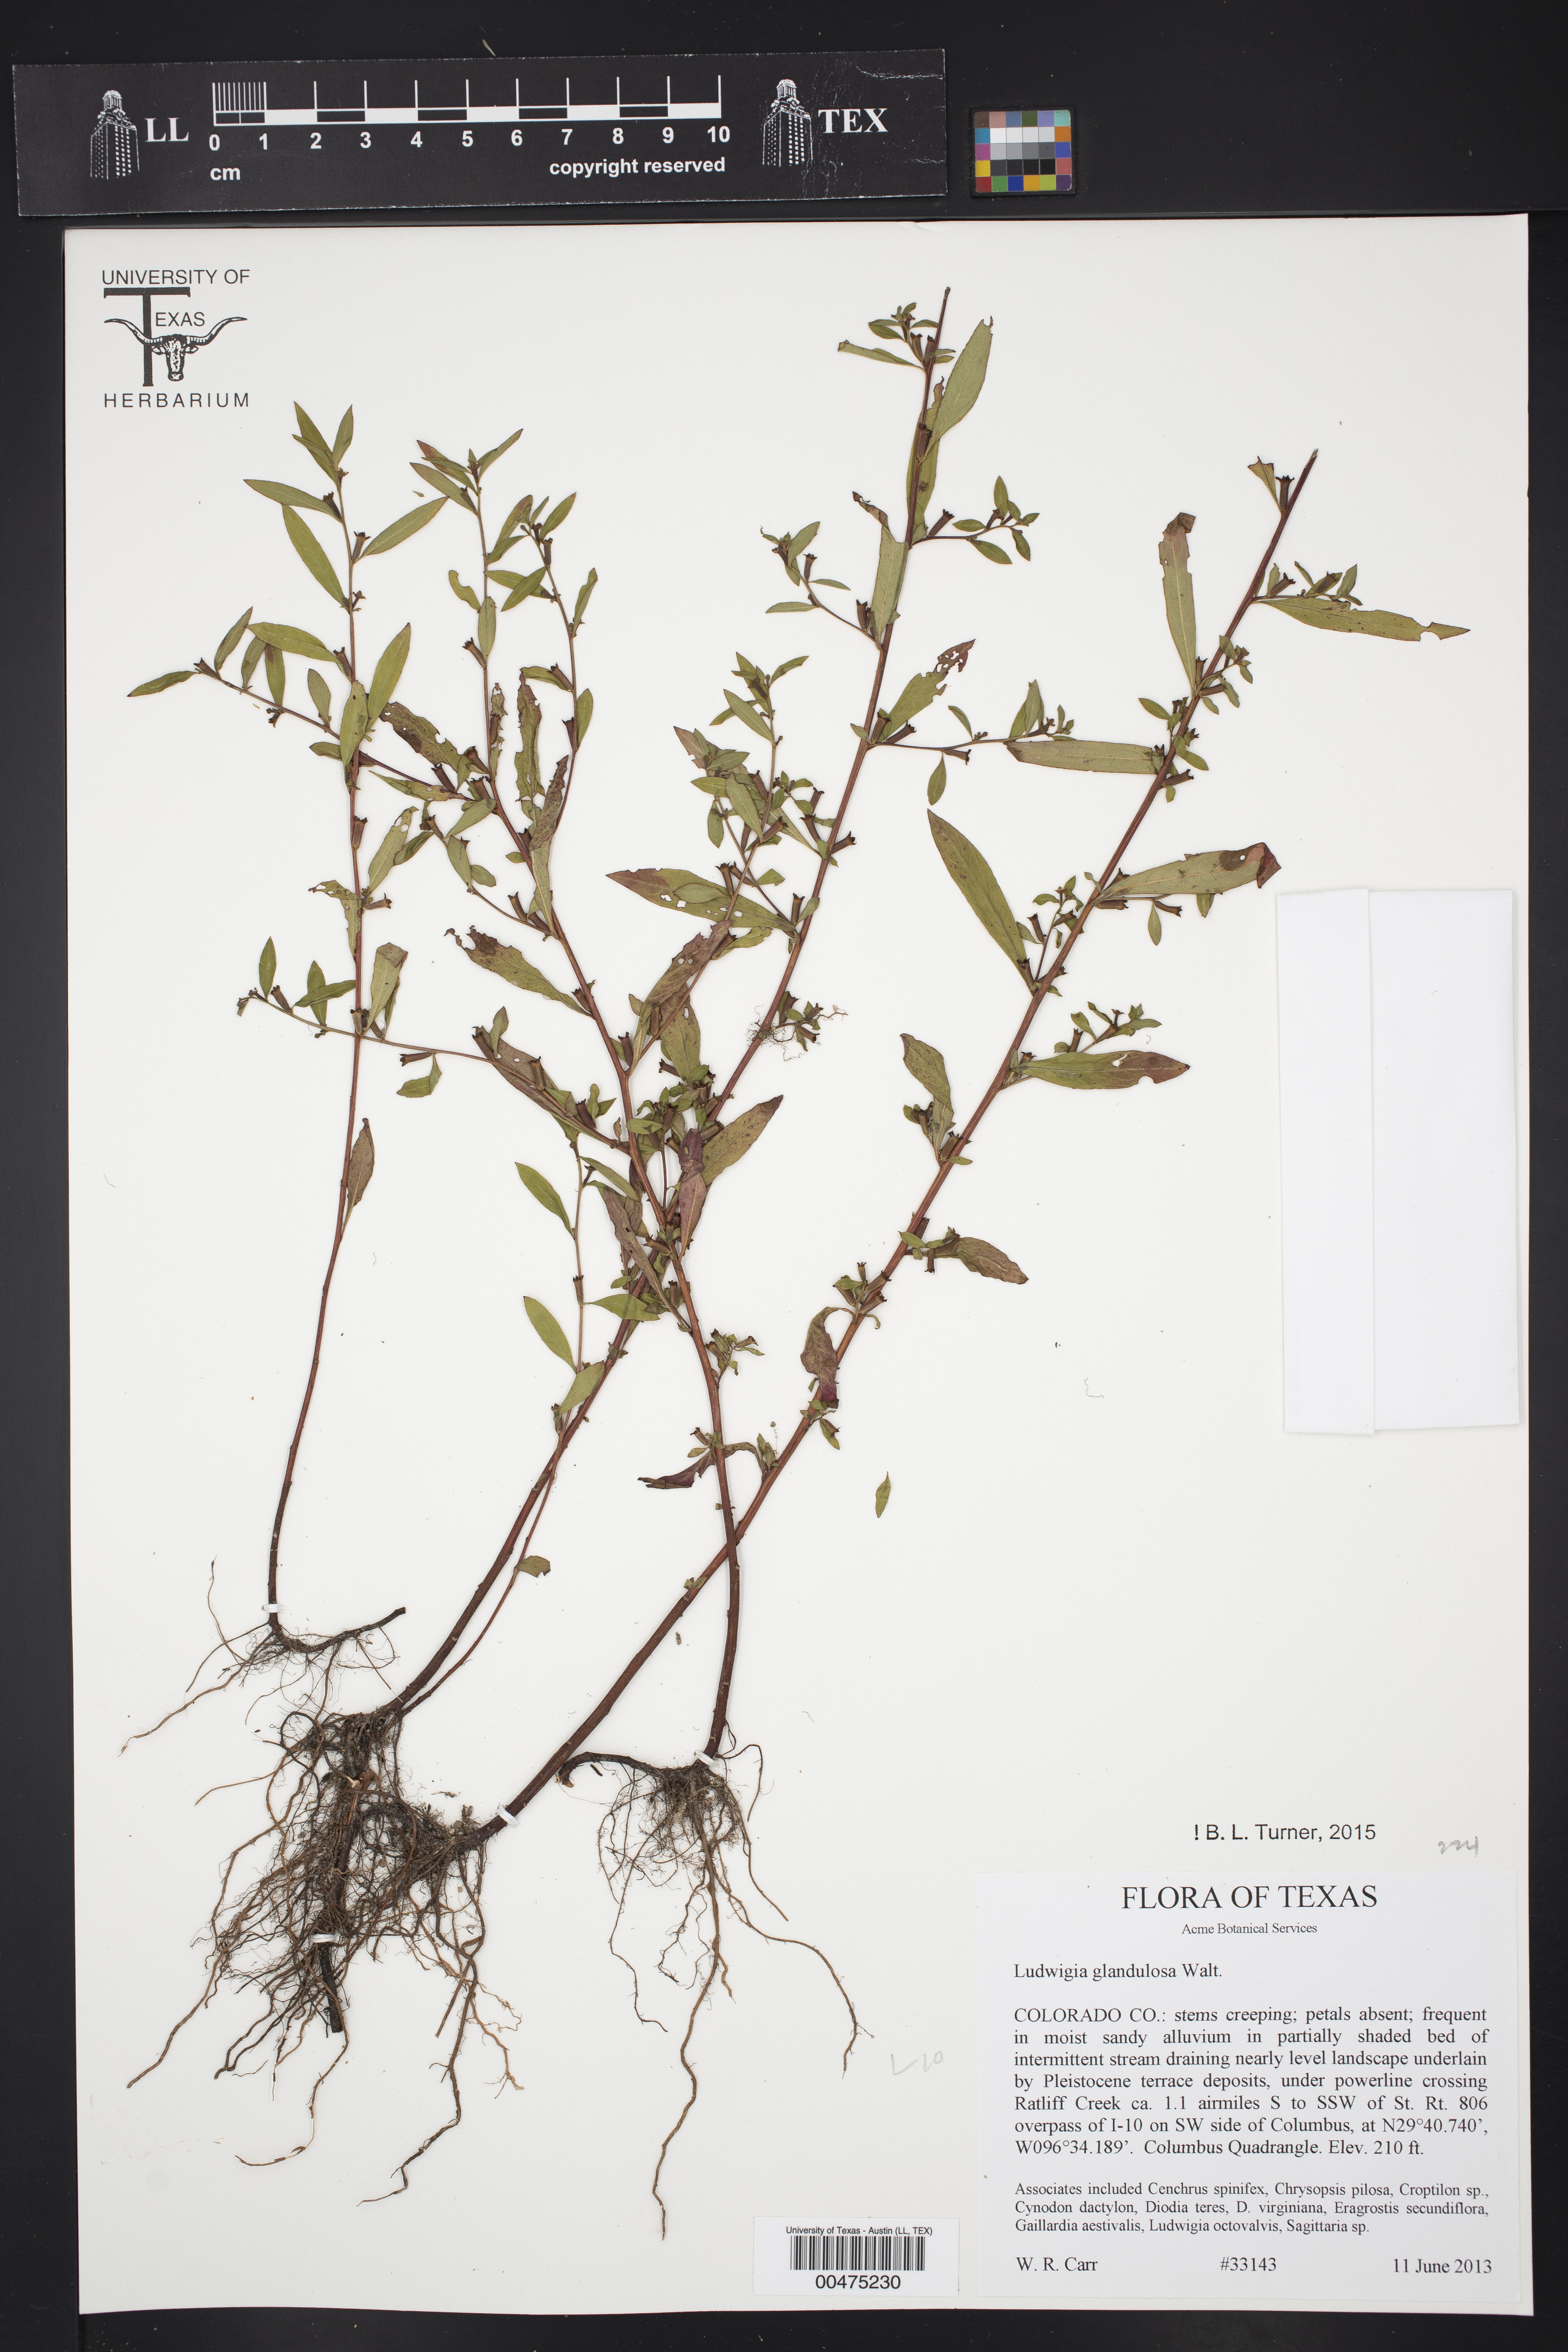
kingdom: Plantae
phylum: Tracheophyta
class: Magnoliopsida
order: Myrtales
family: Onagraceae
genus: Ludwigia
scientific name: Ludwigia glandulosa
